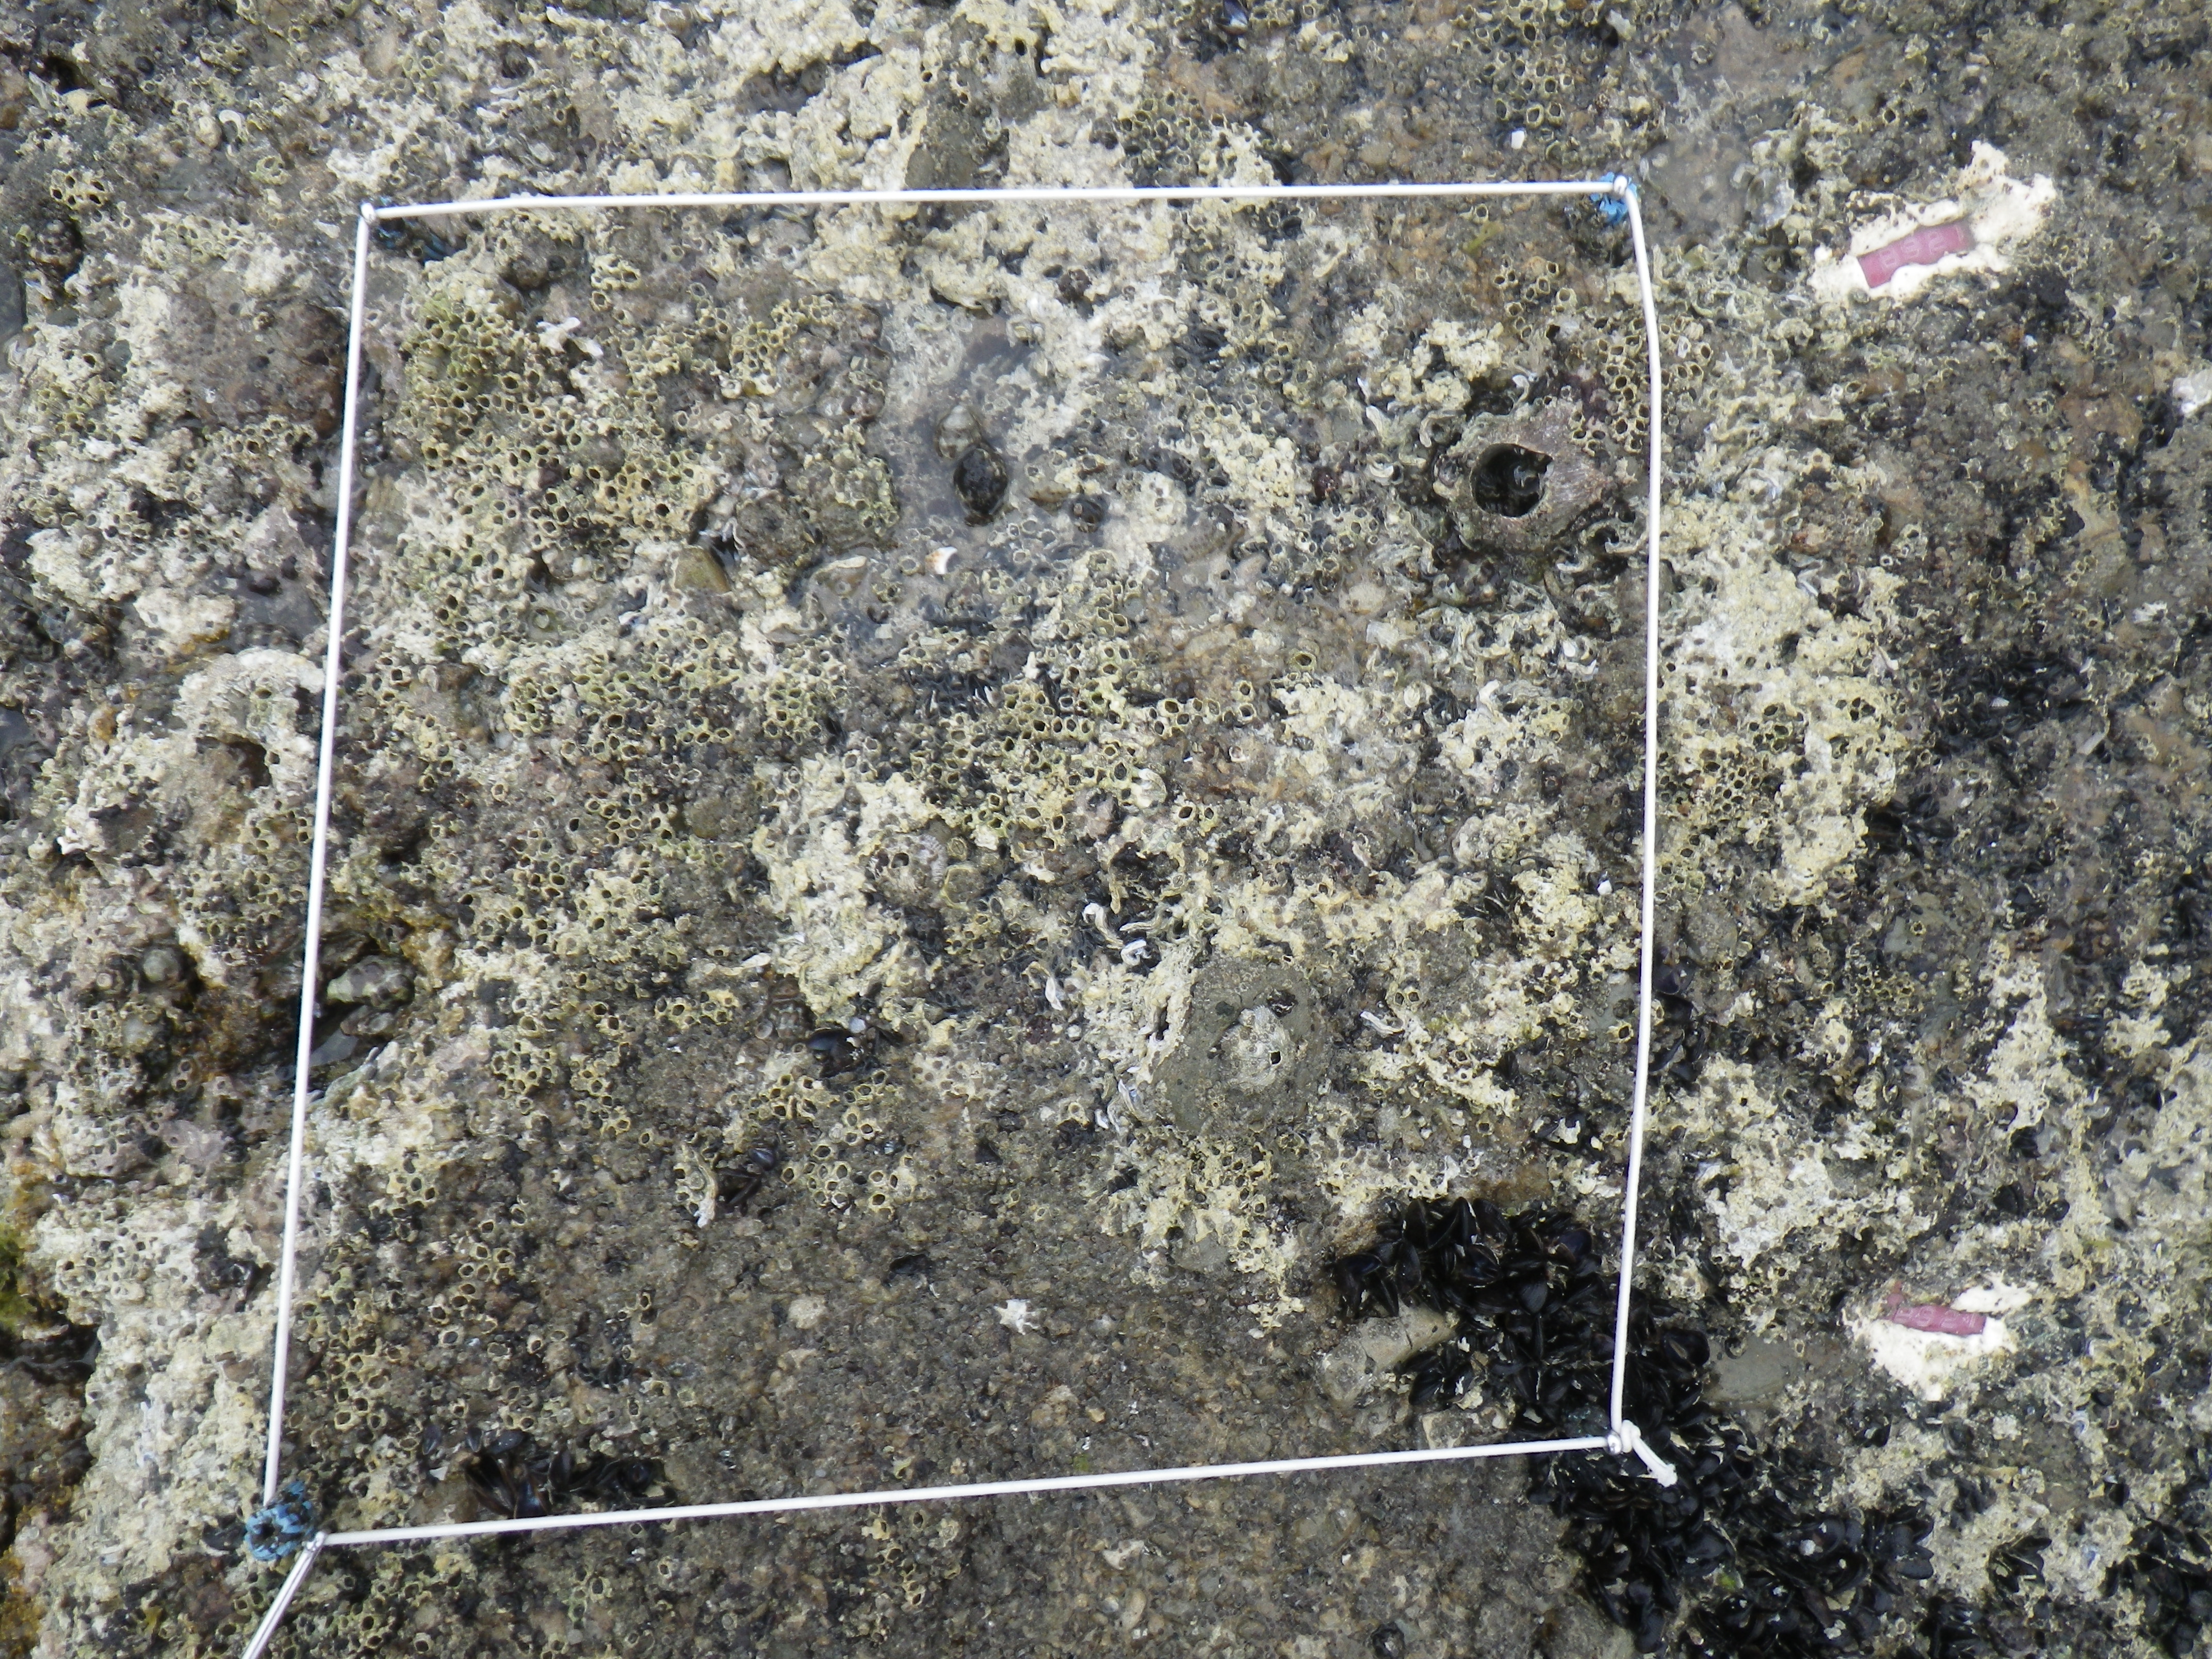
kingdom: Animalia
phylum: Arthropoda
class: Maxillopoda
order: Sessilia
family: Chthamalidae
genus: Chthamalus
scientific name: Chthamalus challengeri
